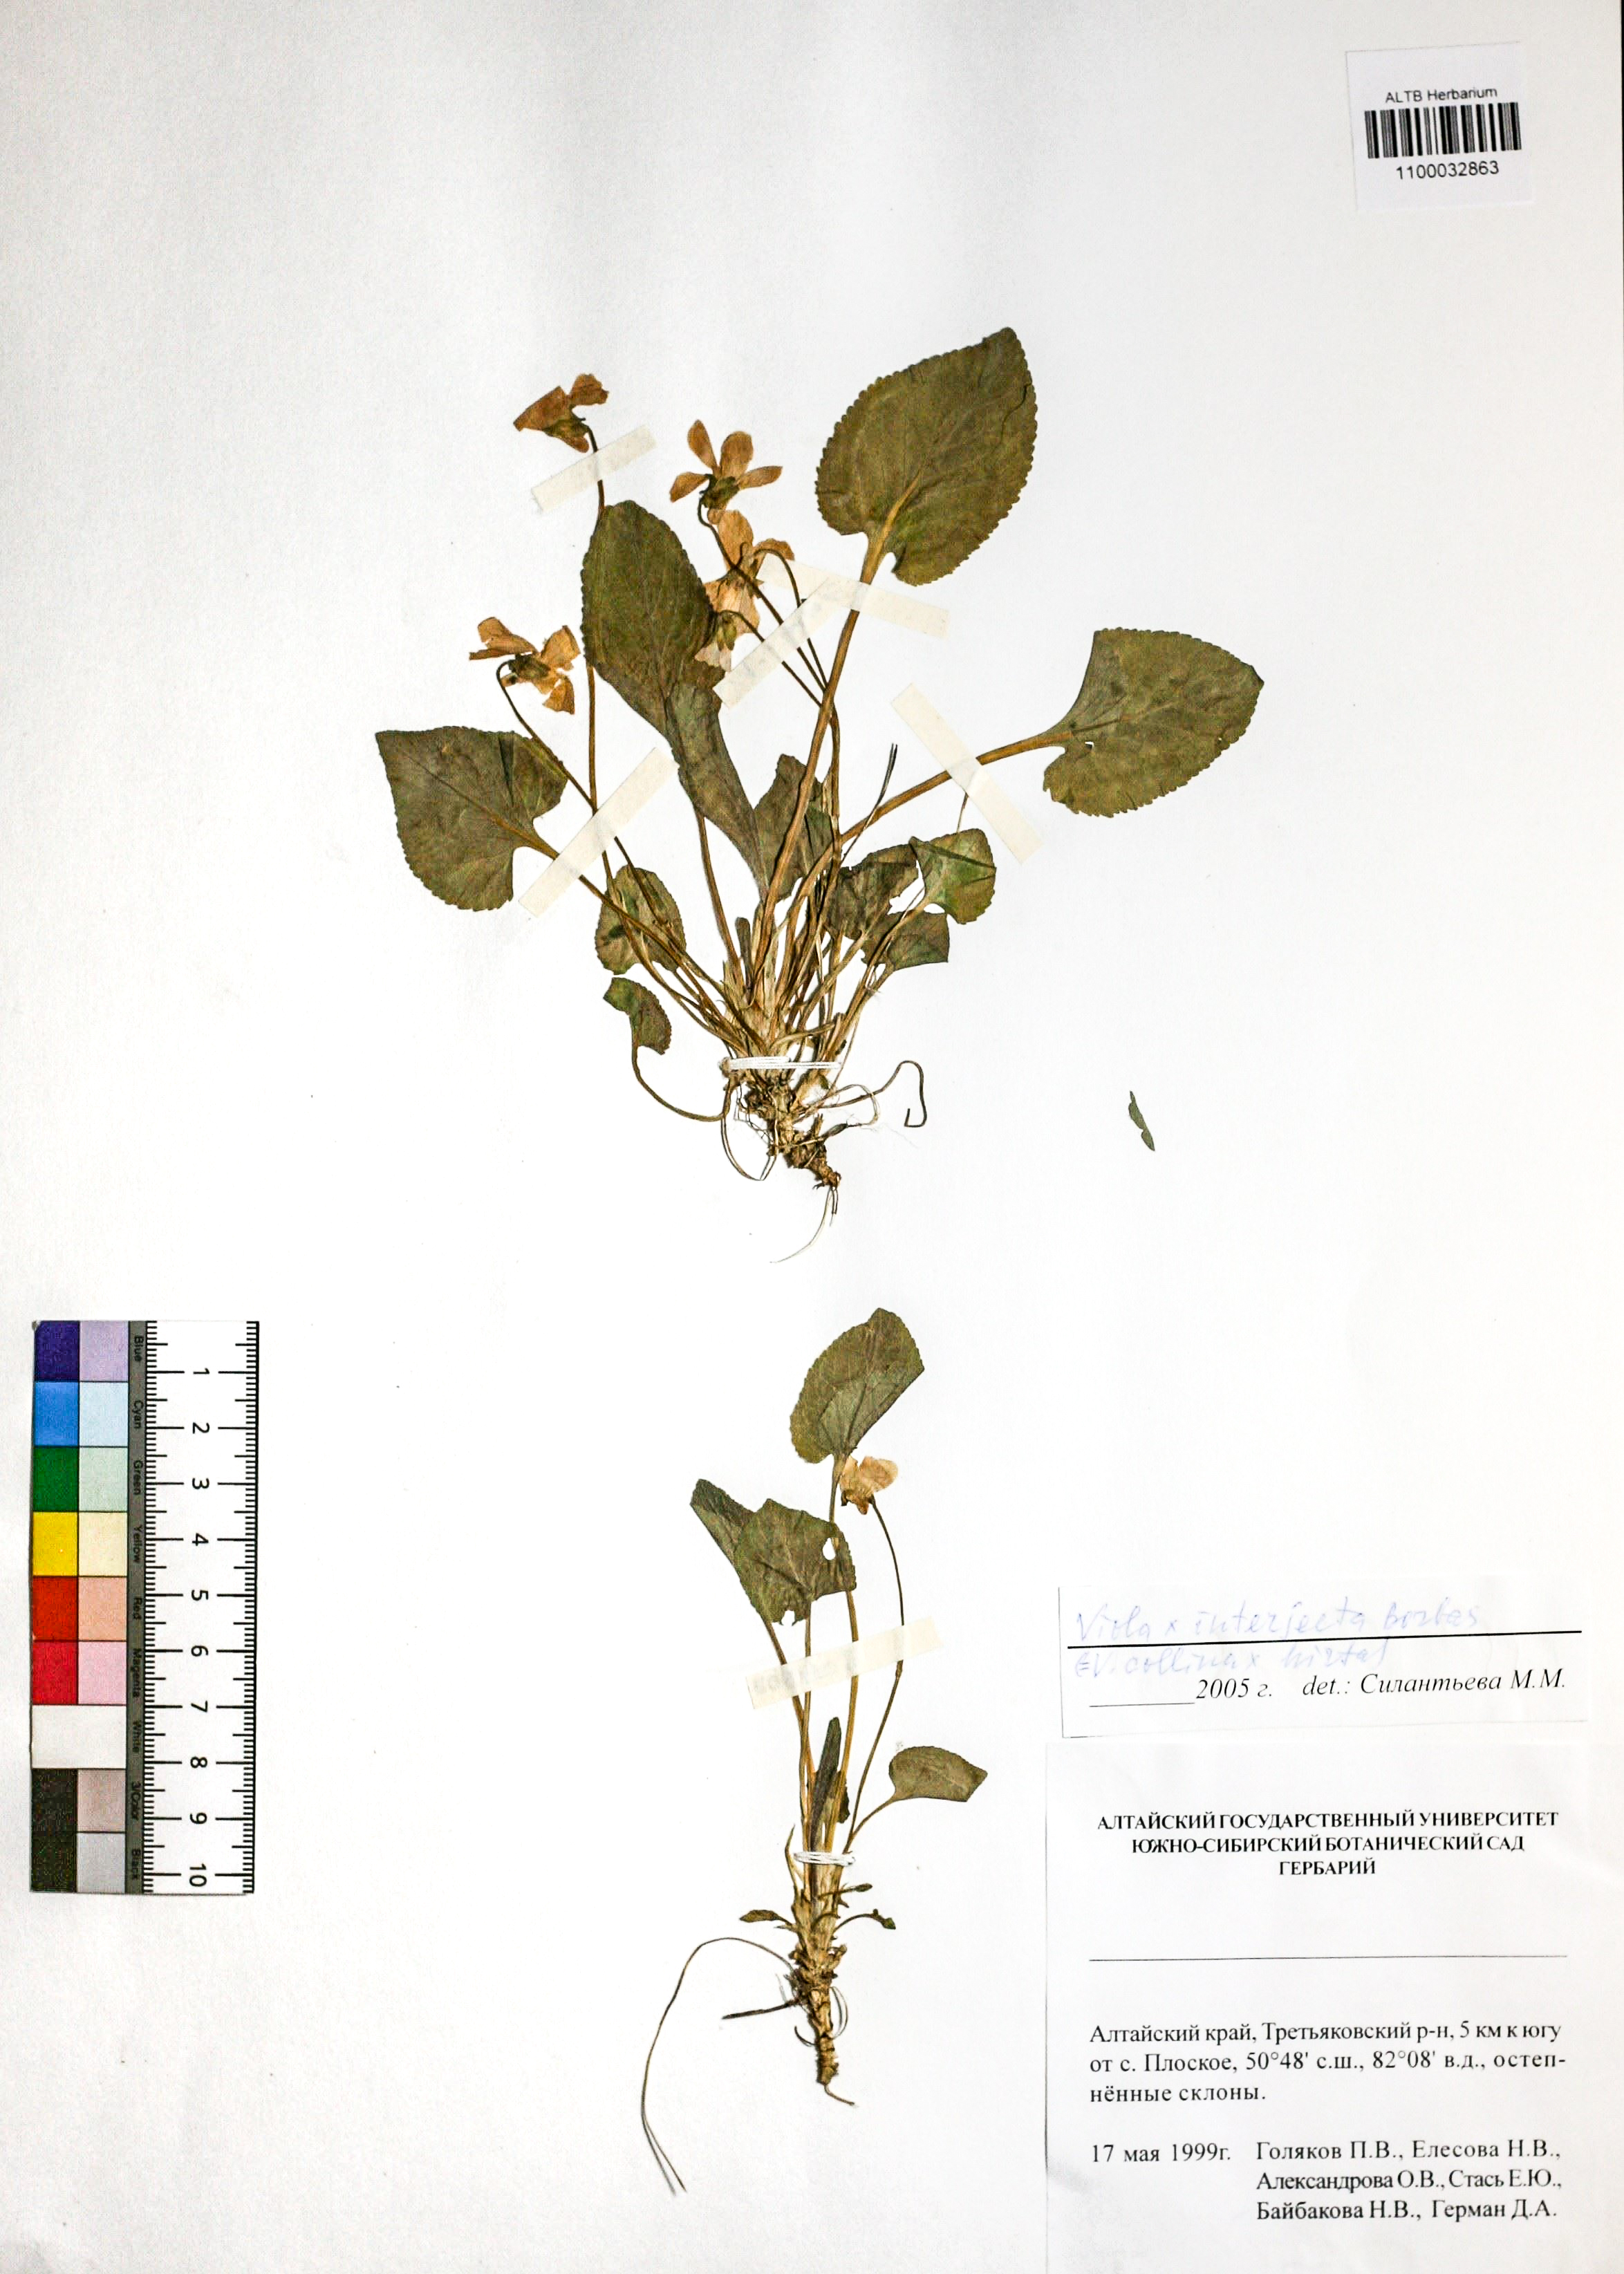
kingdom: Plantae
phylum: Tracheophyta
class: Magnoliopsida
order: Malpighiales
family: Violaceae
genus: Viola
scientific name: Viola interjecta
